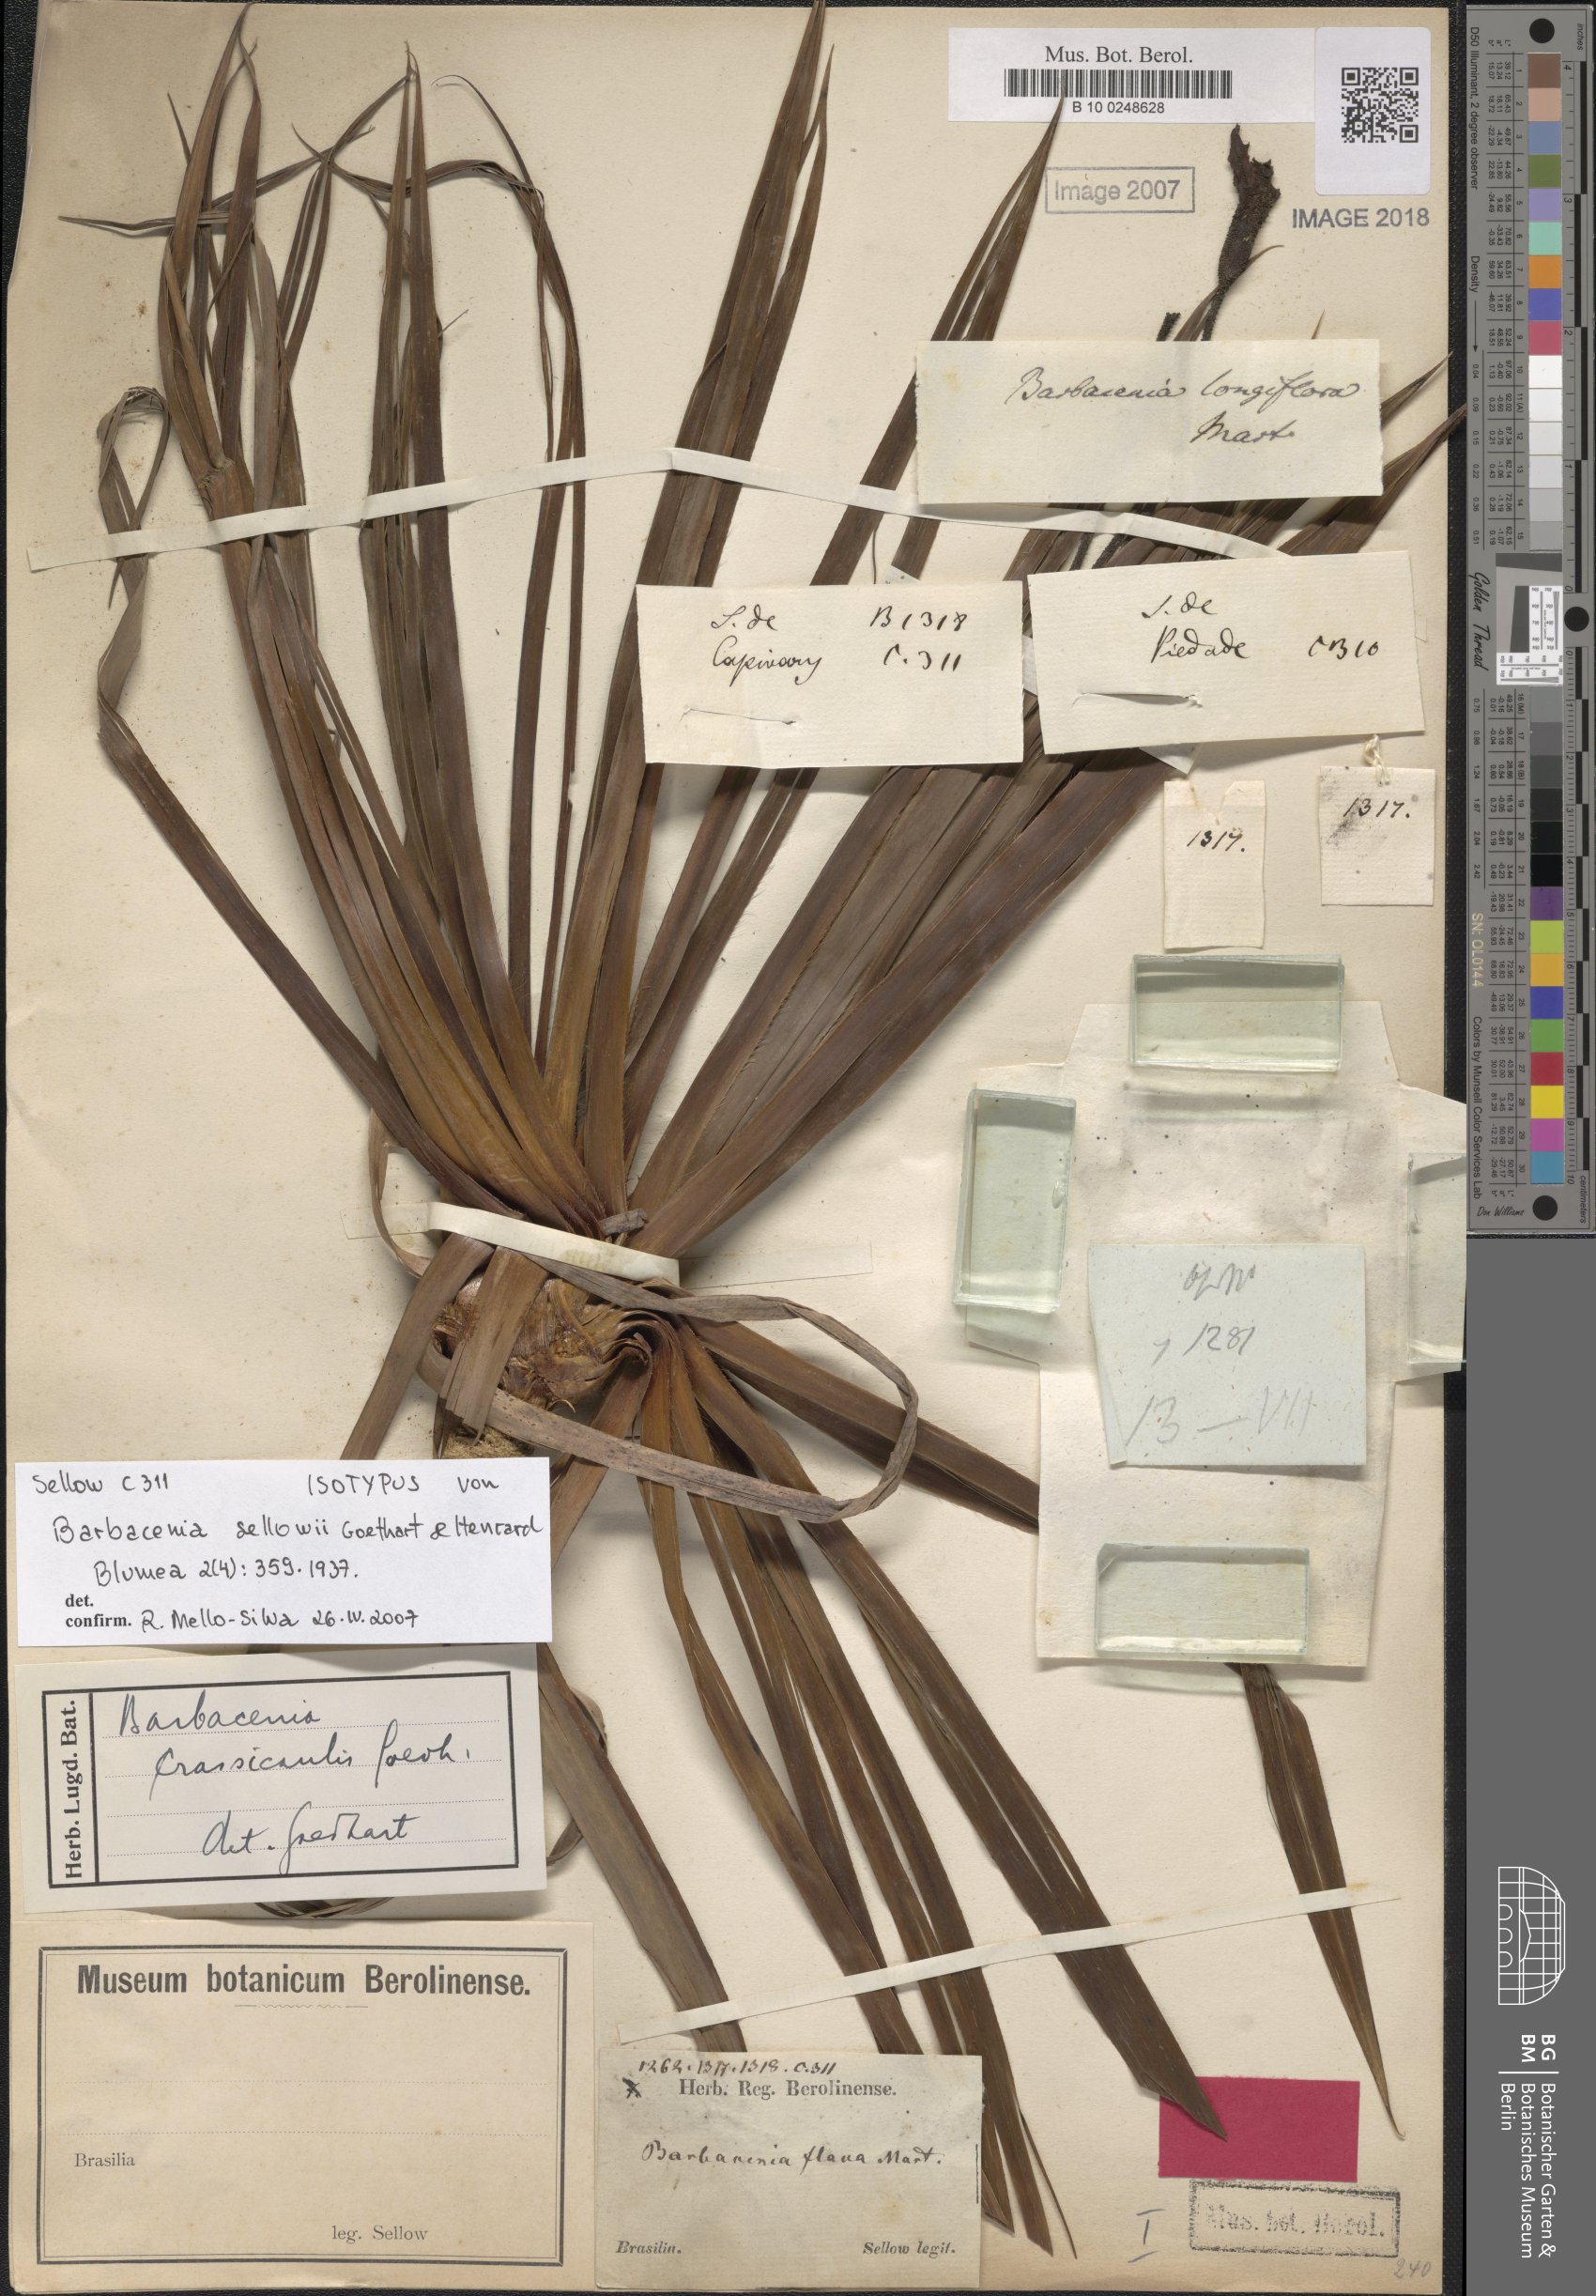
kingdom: Plantae
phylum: Tracheophyta
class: Liliopsida
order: Pandanales
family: Velloziaceae
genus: Barbacenia
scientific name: Barbacenia flava
